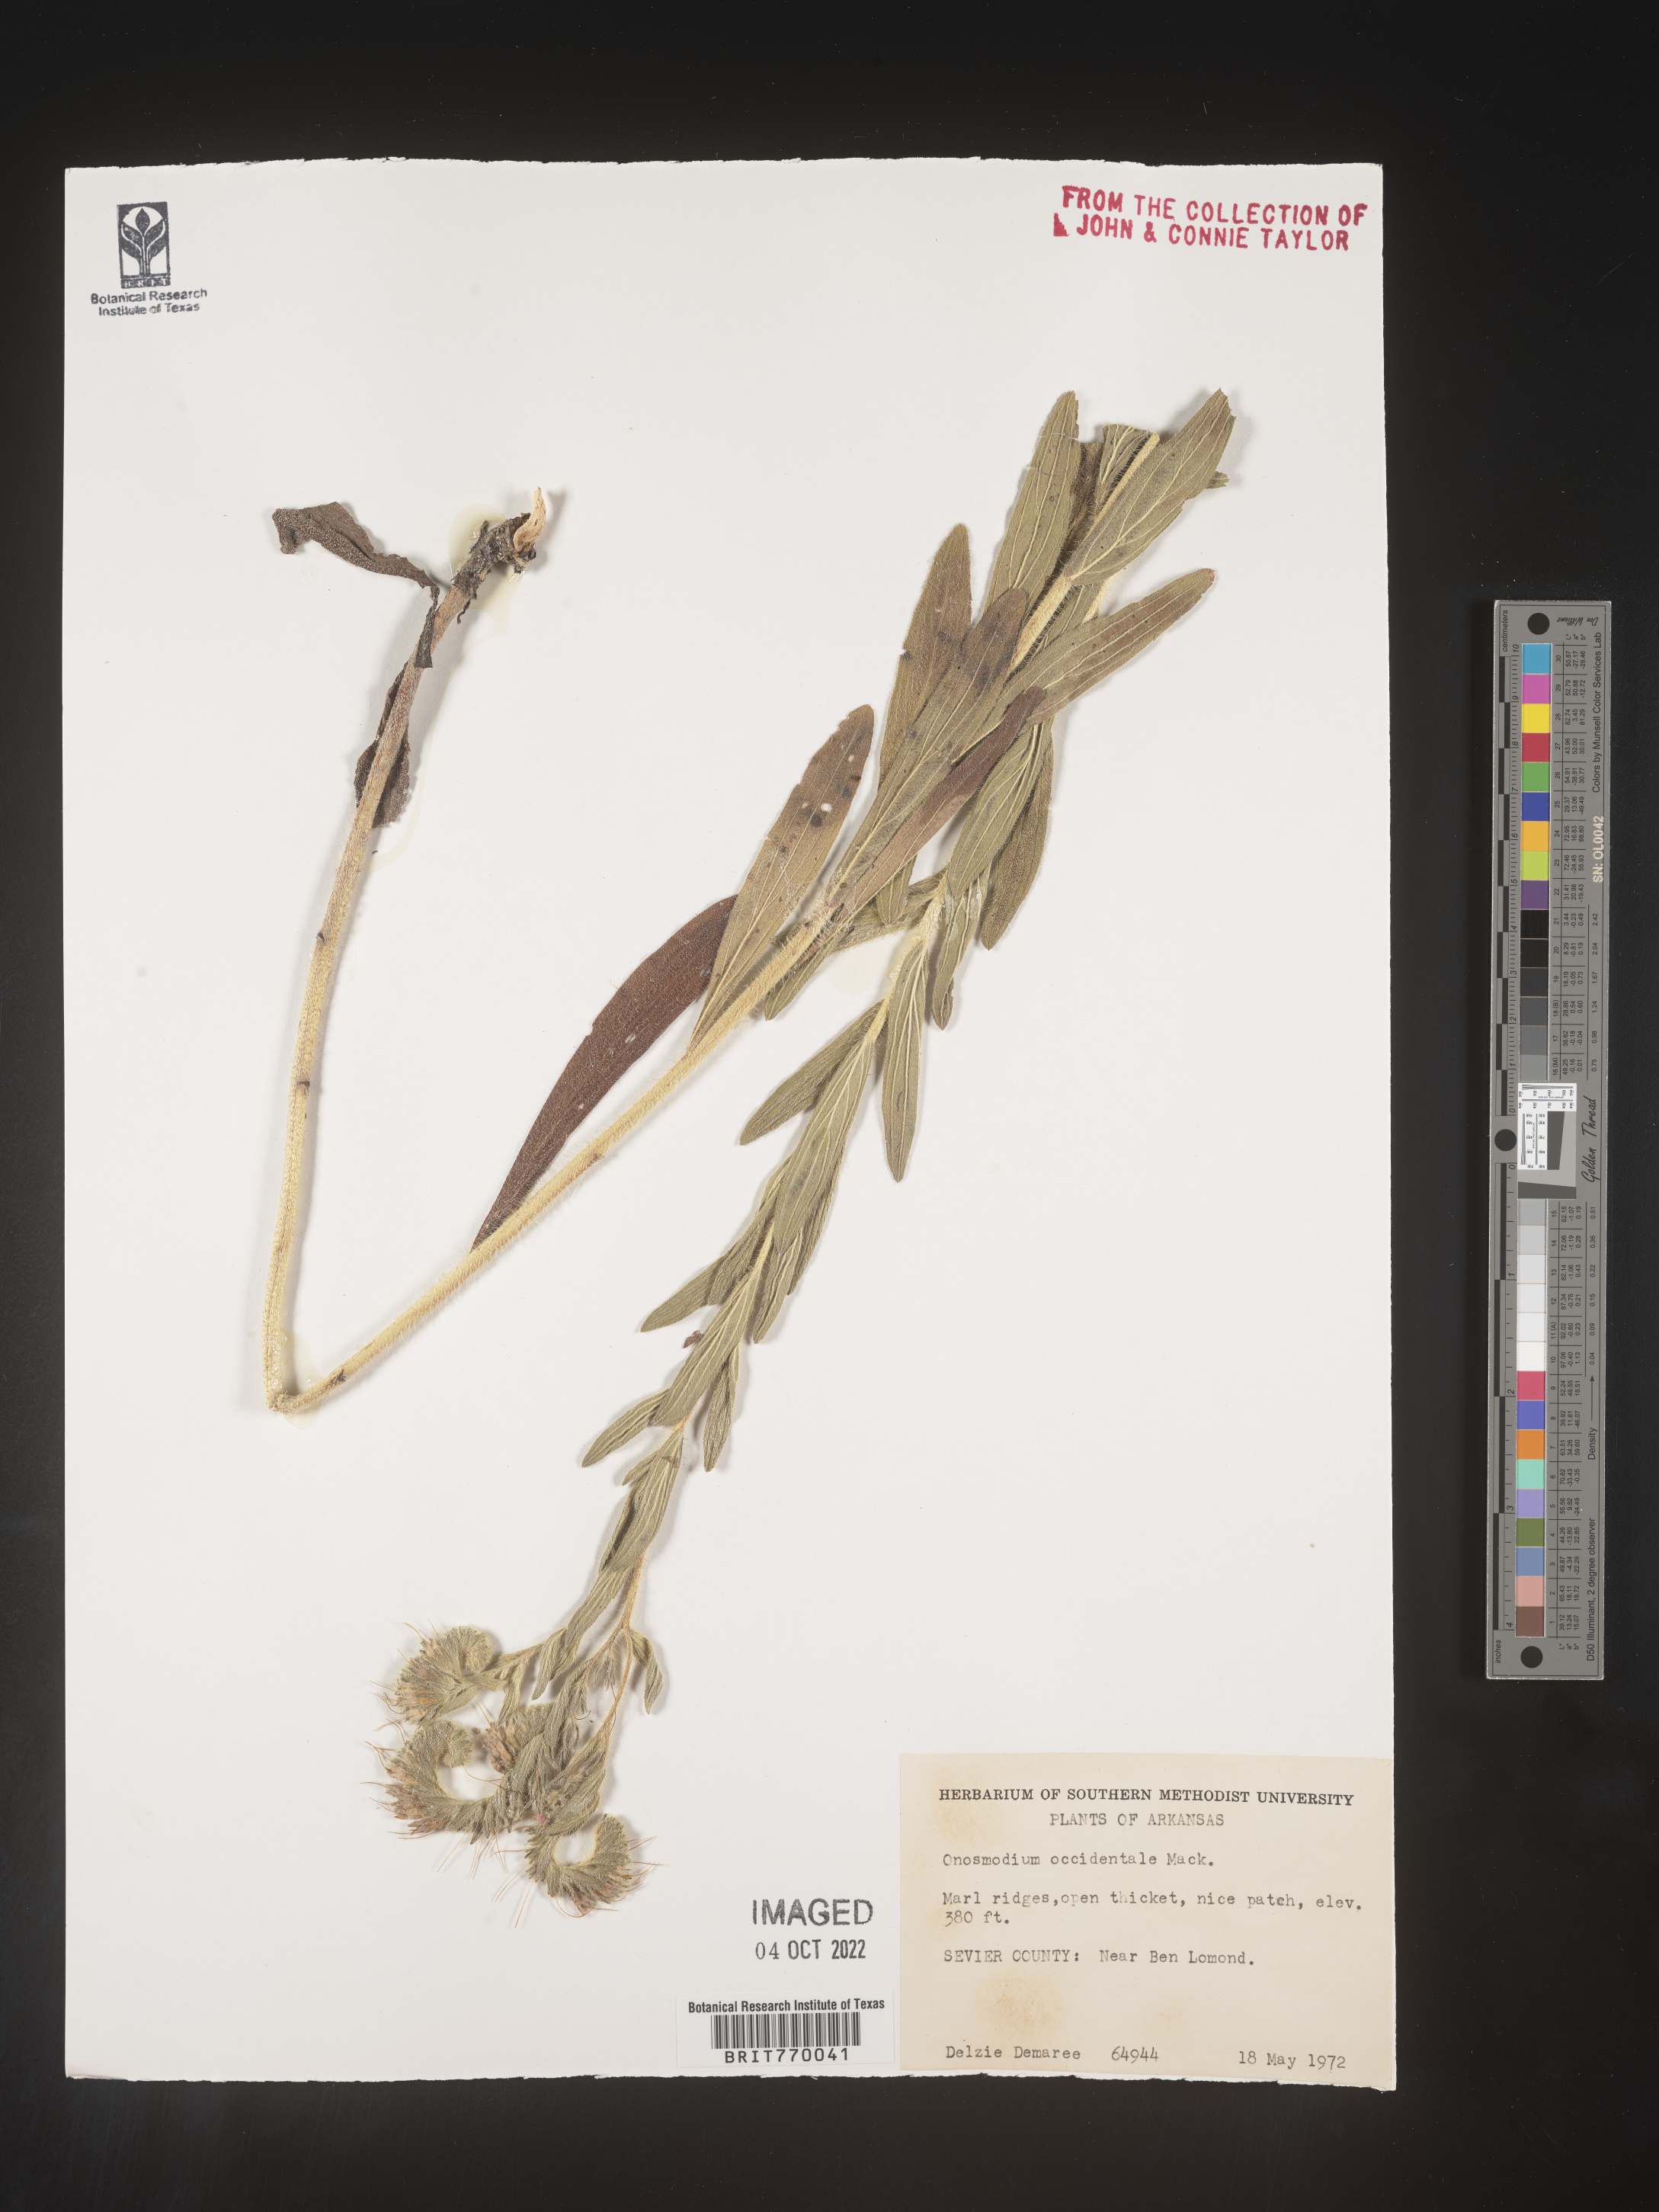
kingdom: Plantae
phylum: Tracheophyta
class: Magnoliopsida
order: Boraginales
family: Boraginaceae
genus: Lithospermum
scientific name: Lithospermum occidentale
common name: Western false gromwell
